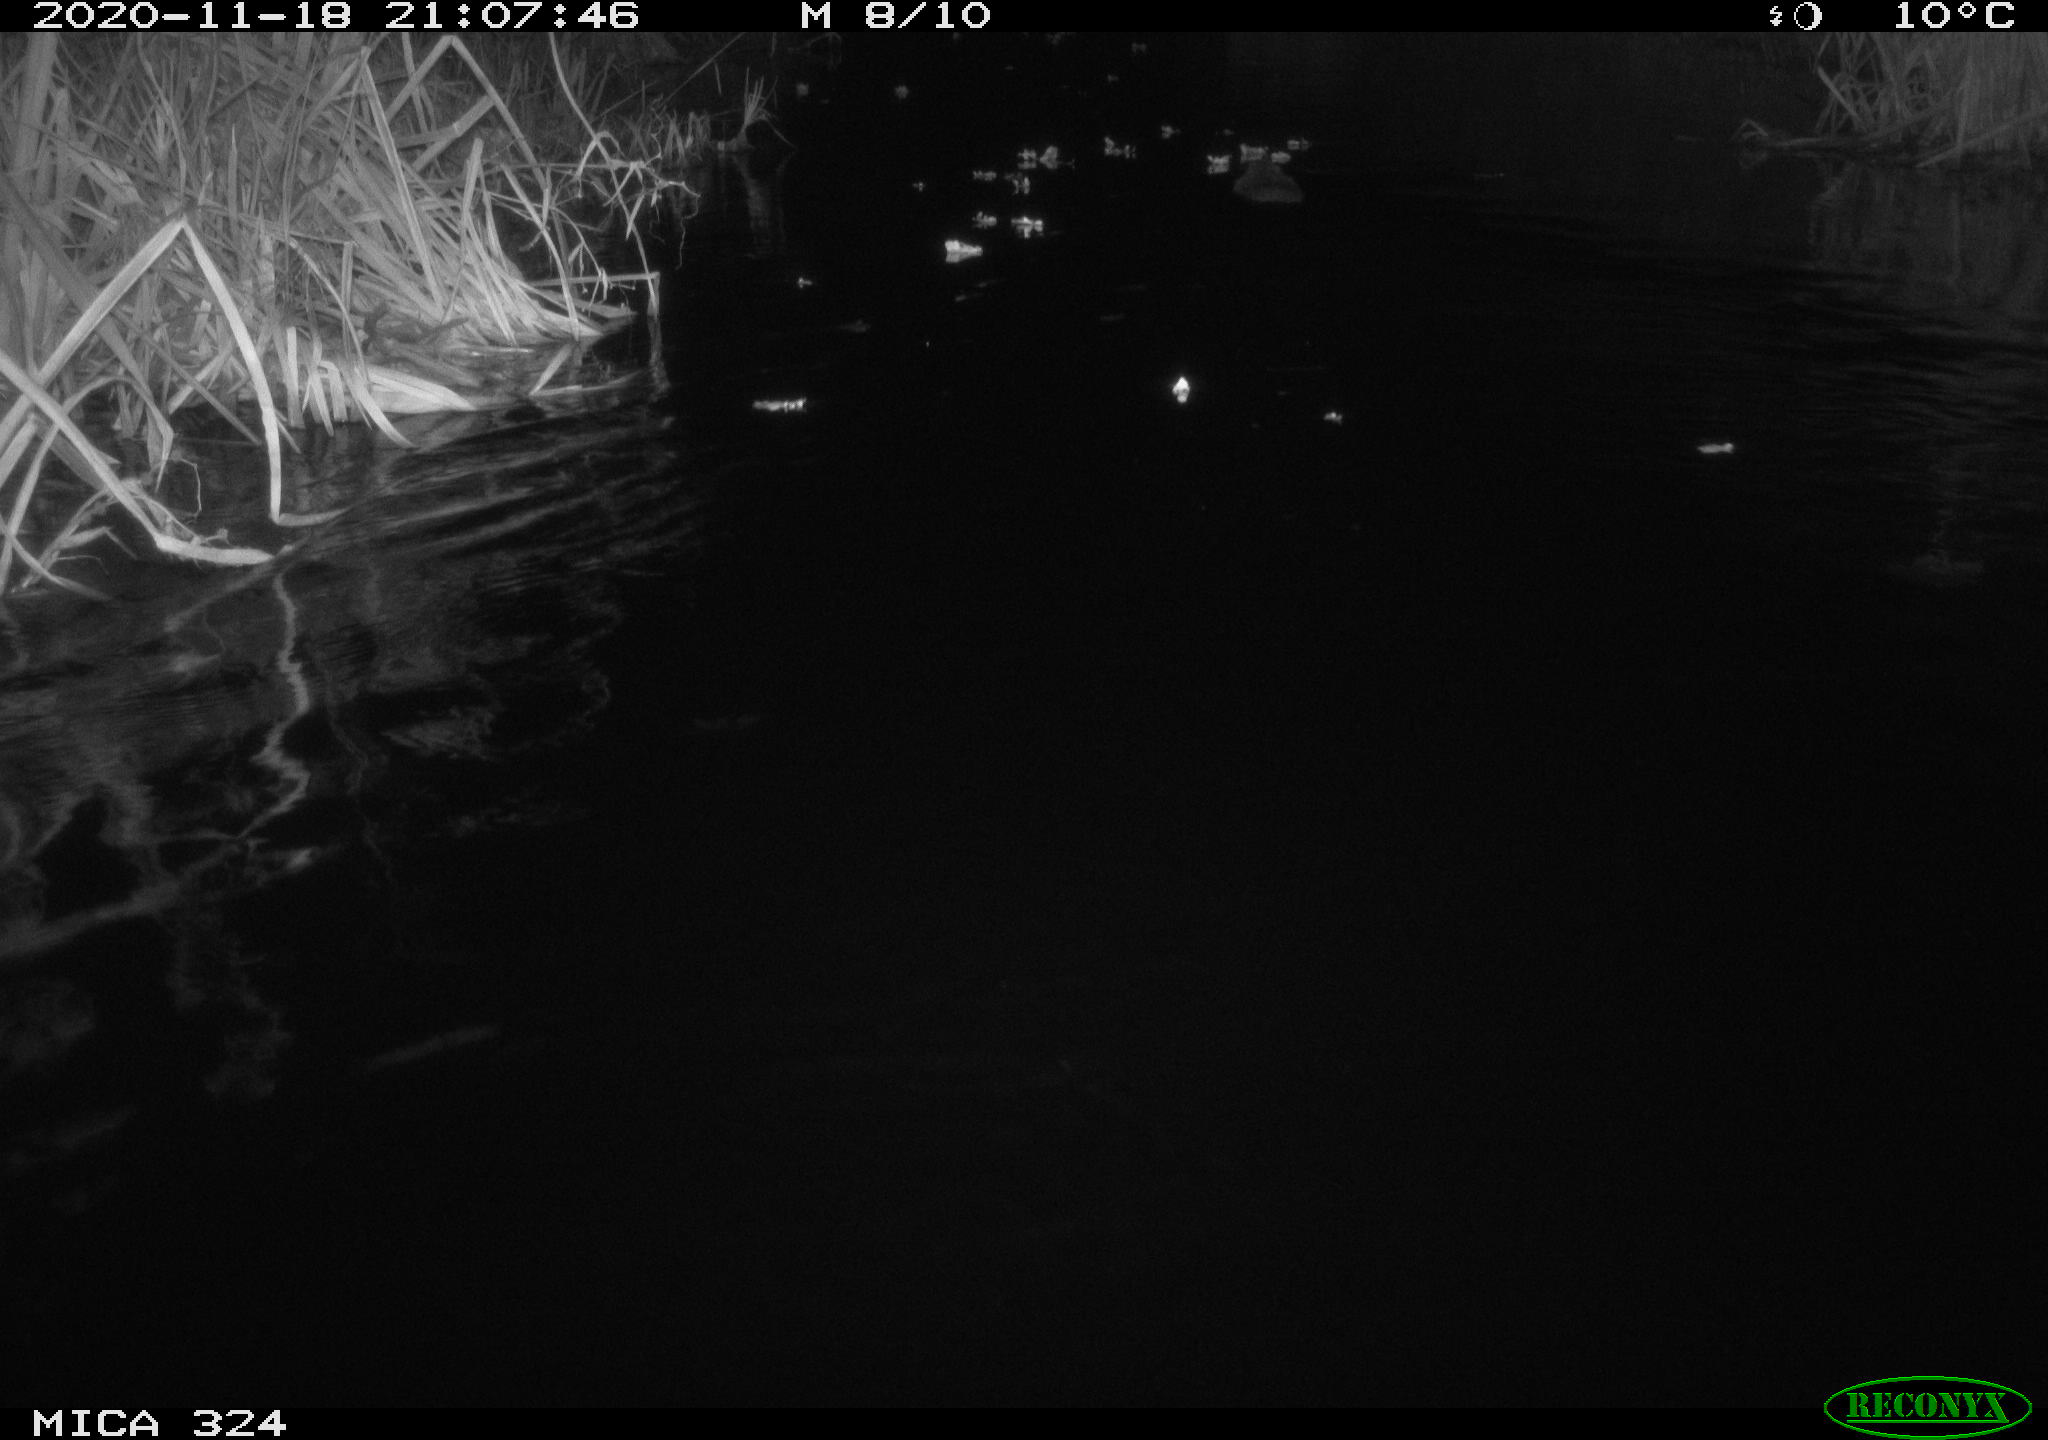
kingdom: Animalia
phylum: Chordata
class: Mammalia
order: Rodentia
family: Myocastoridae
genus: Myocastor
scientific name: Myocastor coypus
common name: Coypu
